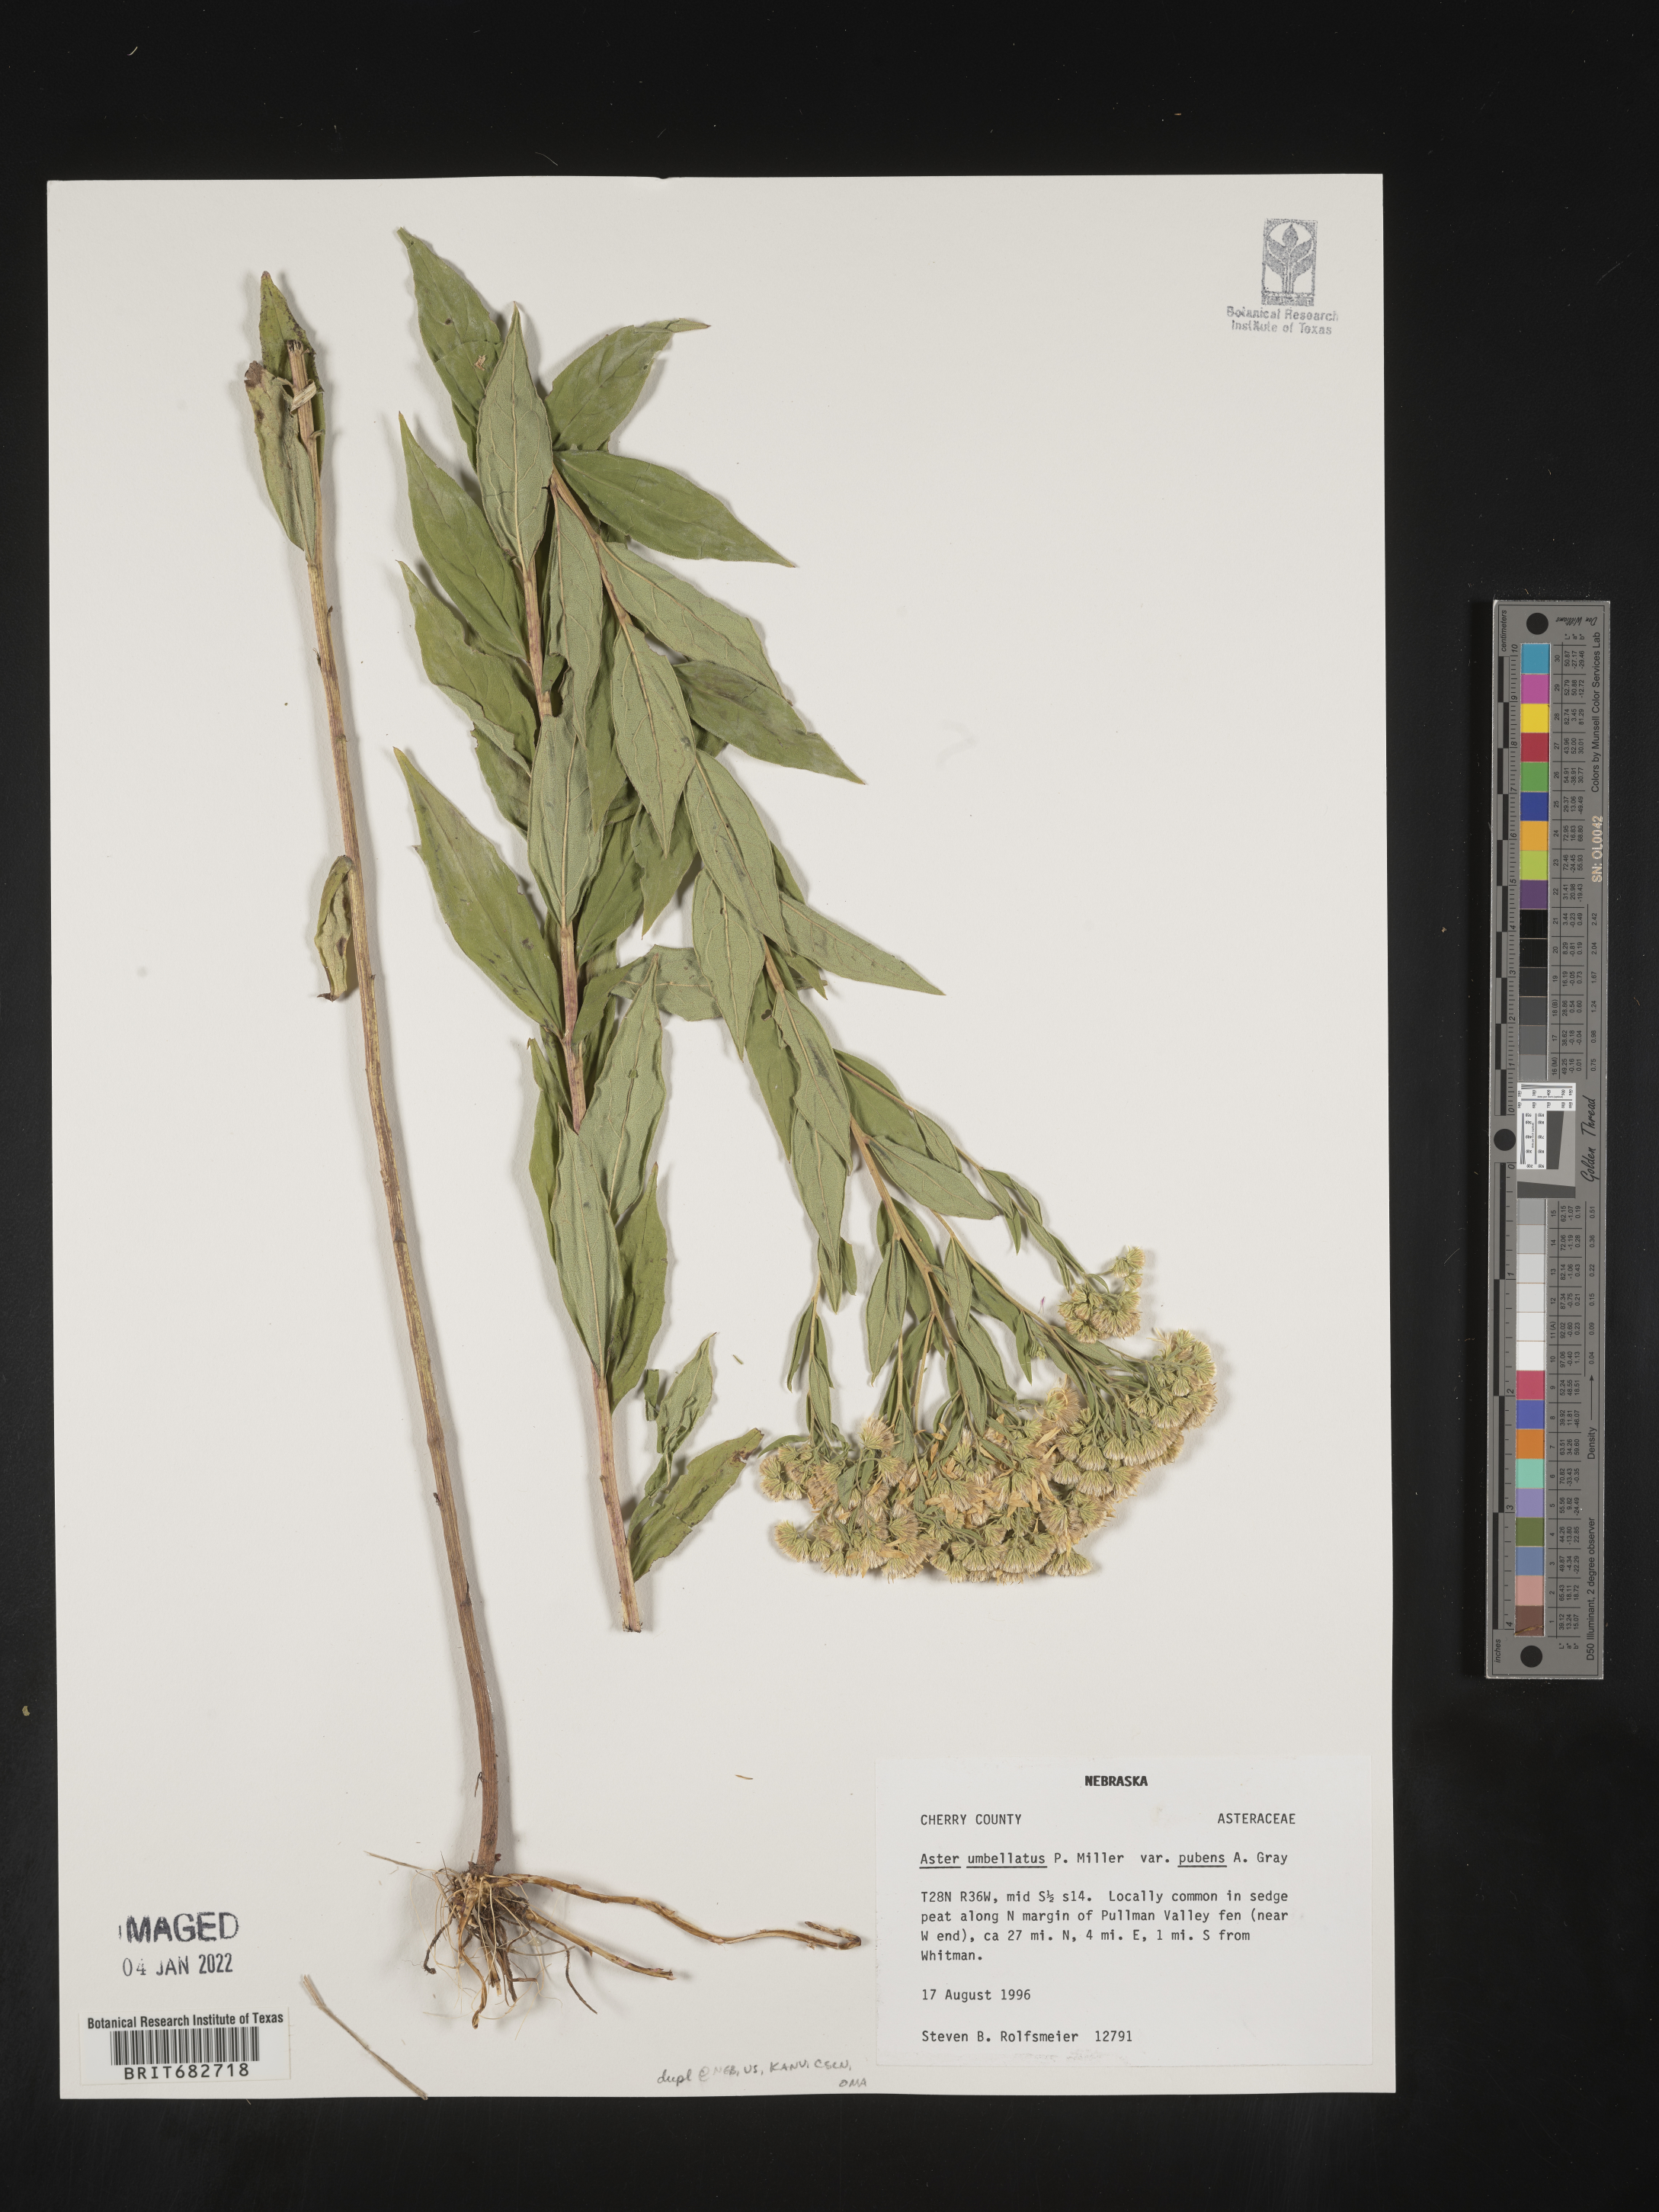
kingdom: Plantae
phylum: Tracheophyta
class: Magnoliopsida
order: Asterales
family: Asteraceae
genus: Doellingeria
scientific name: Doellingeria umbellata
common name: Flat-top white aster
